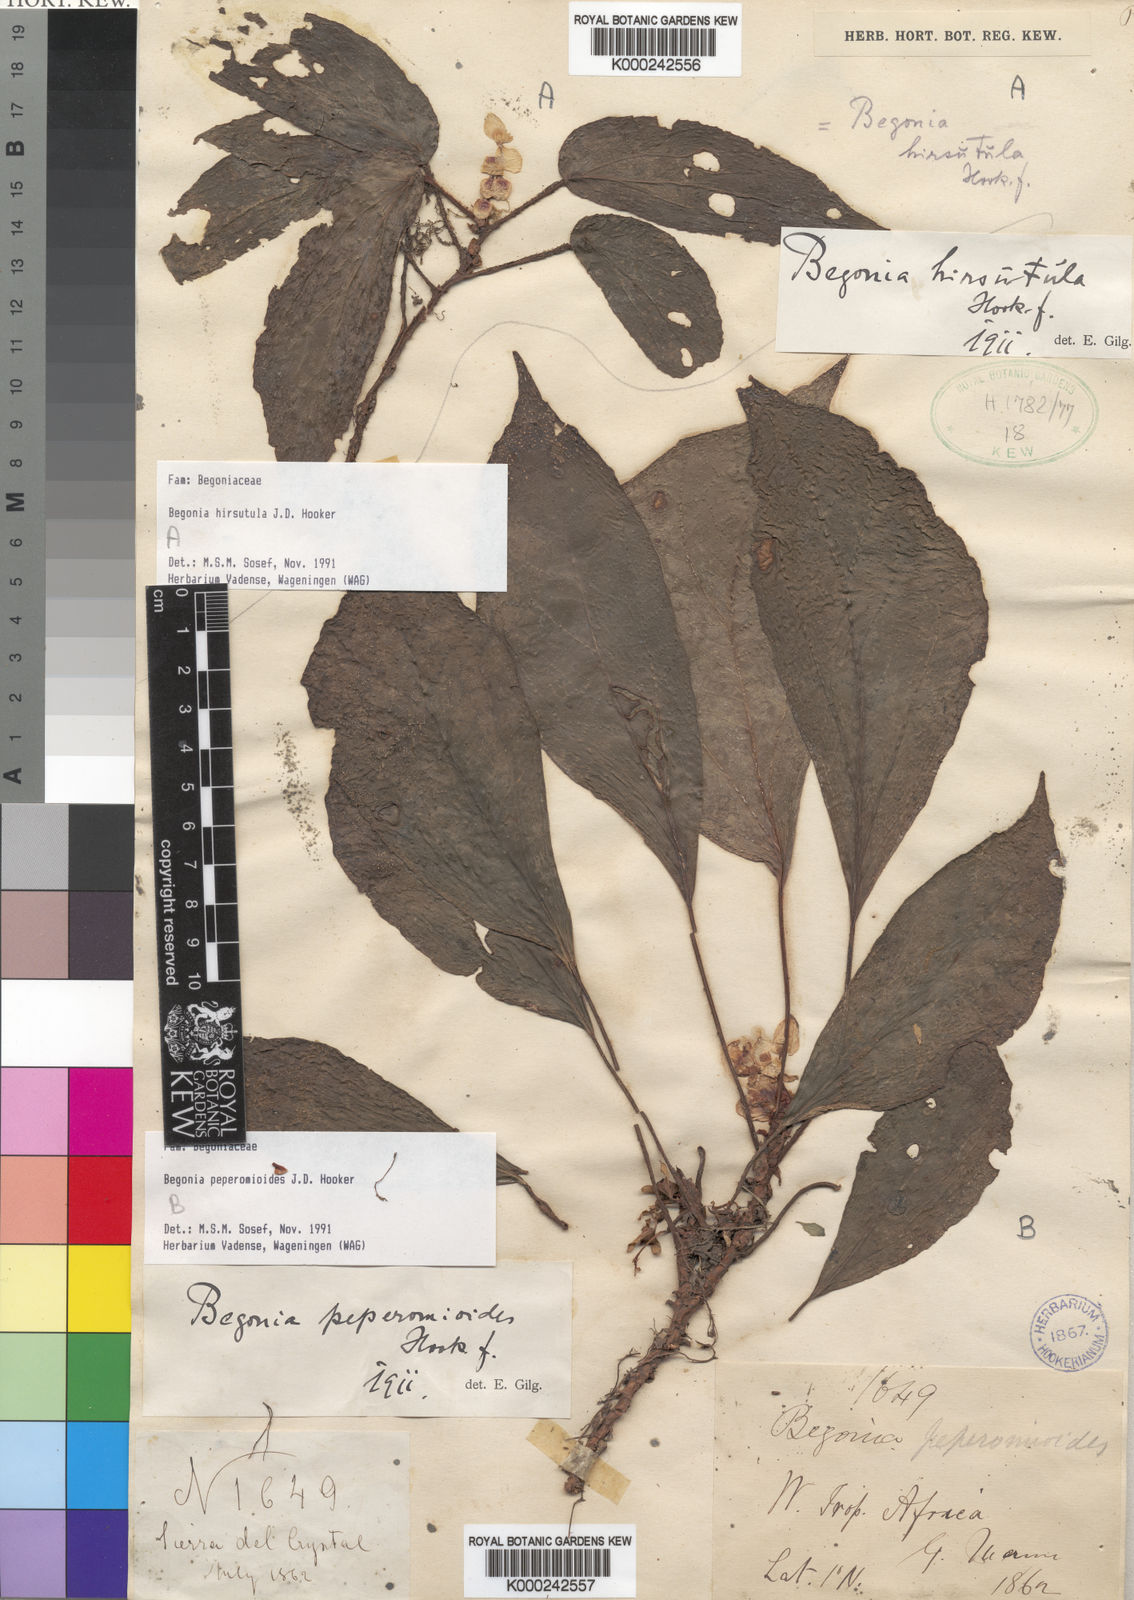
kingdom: Plantae
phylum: Tracheophyta
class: Magnoliopsida
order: Cucurbitales
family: Begoniaceae
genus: Begonia
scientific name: Begonia peperomioides
